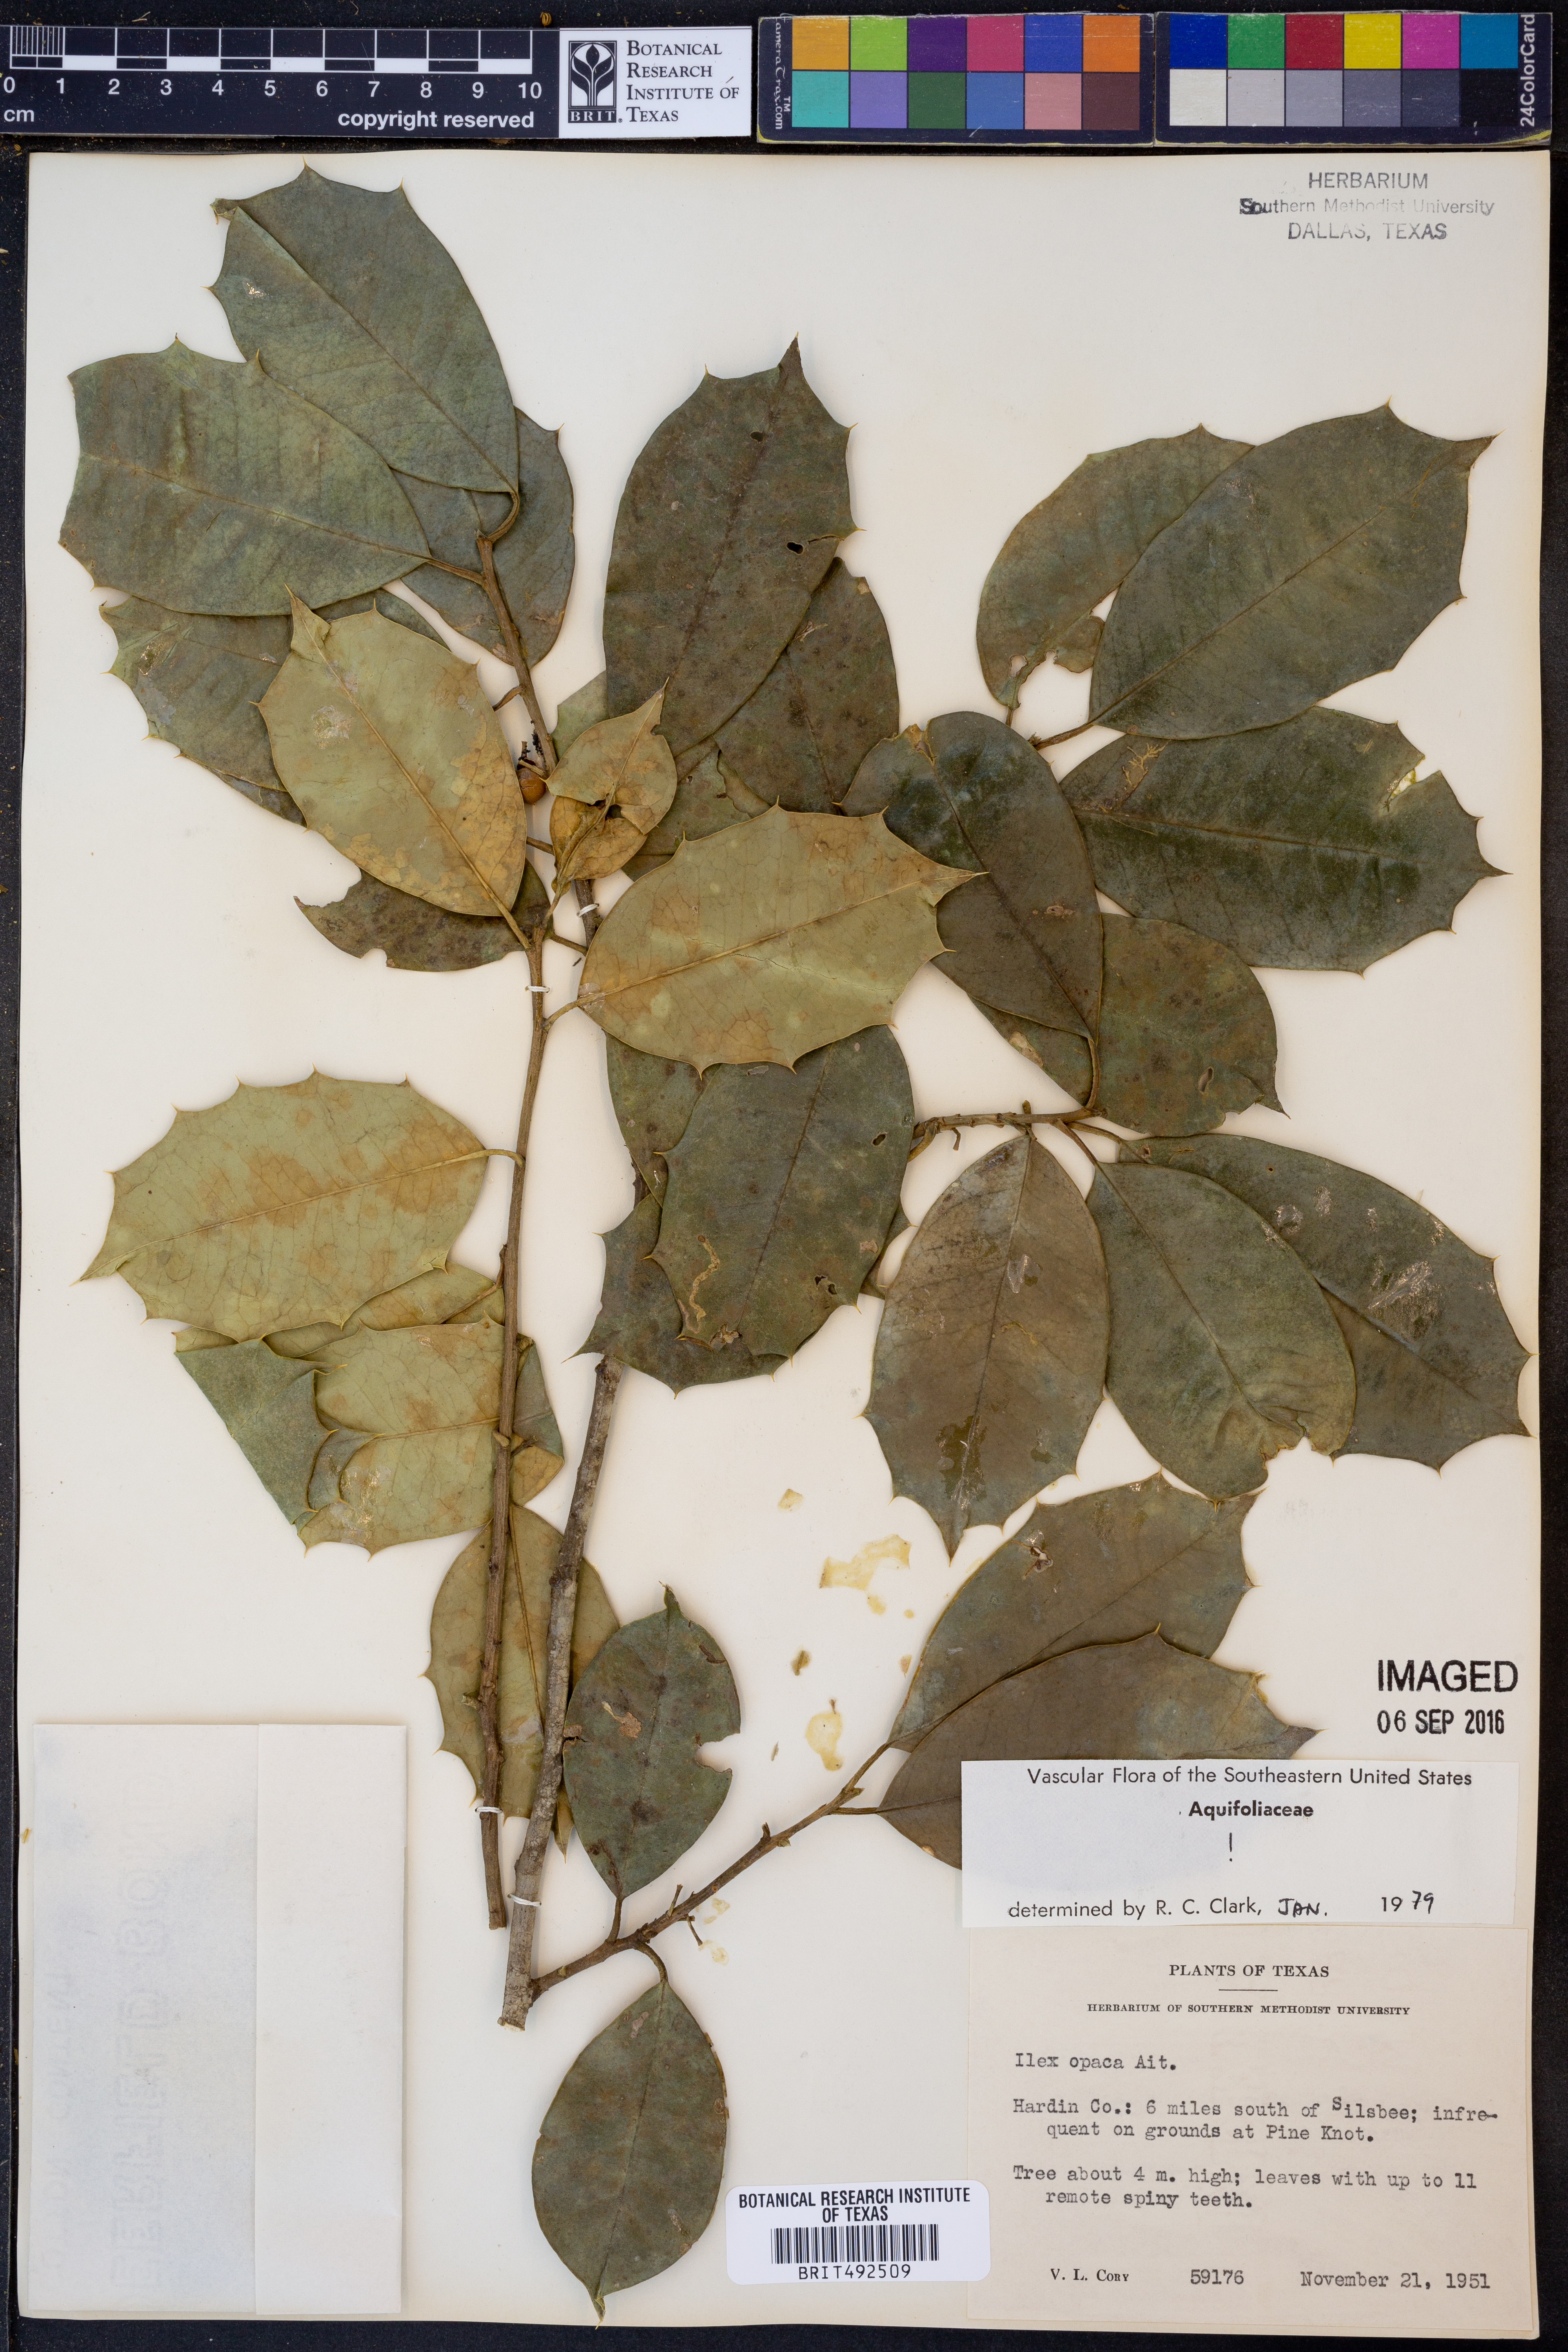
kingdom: Plantae
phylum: Tracheophyta
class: Magnoliopsida
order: Aquifoliales
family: Aquifoliaceae
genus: Ilex
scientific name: Ilex opaca
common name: American holly
